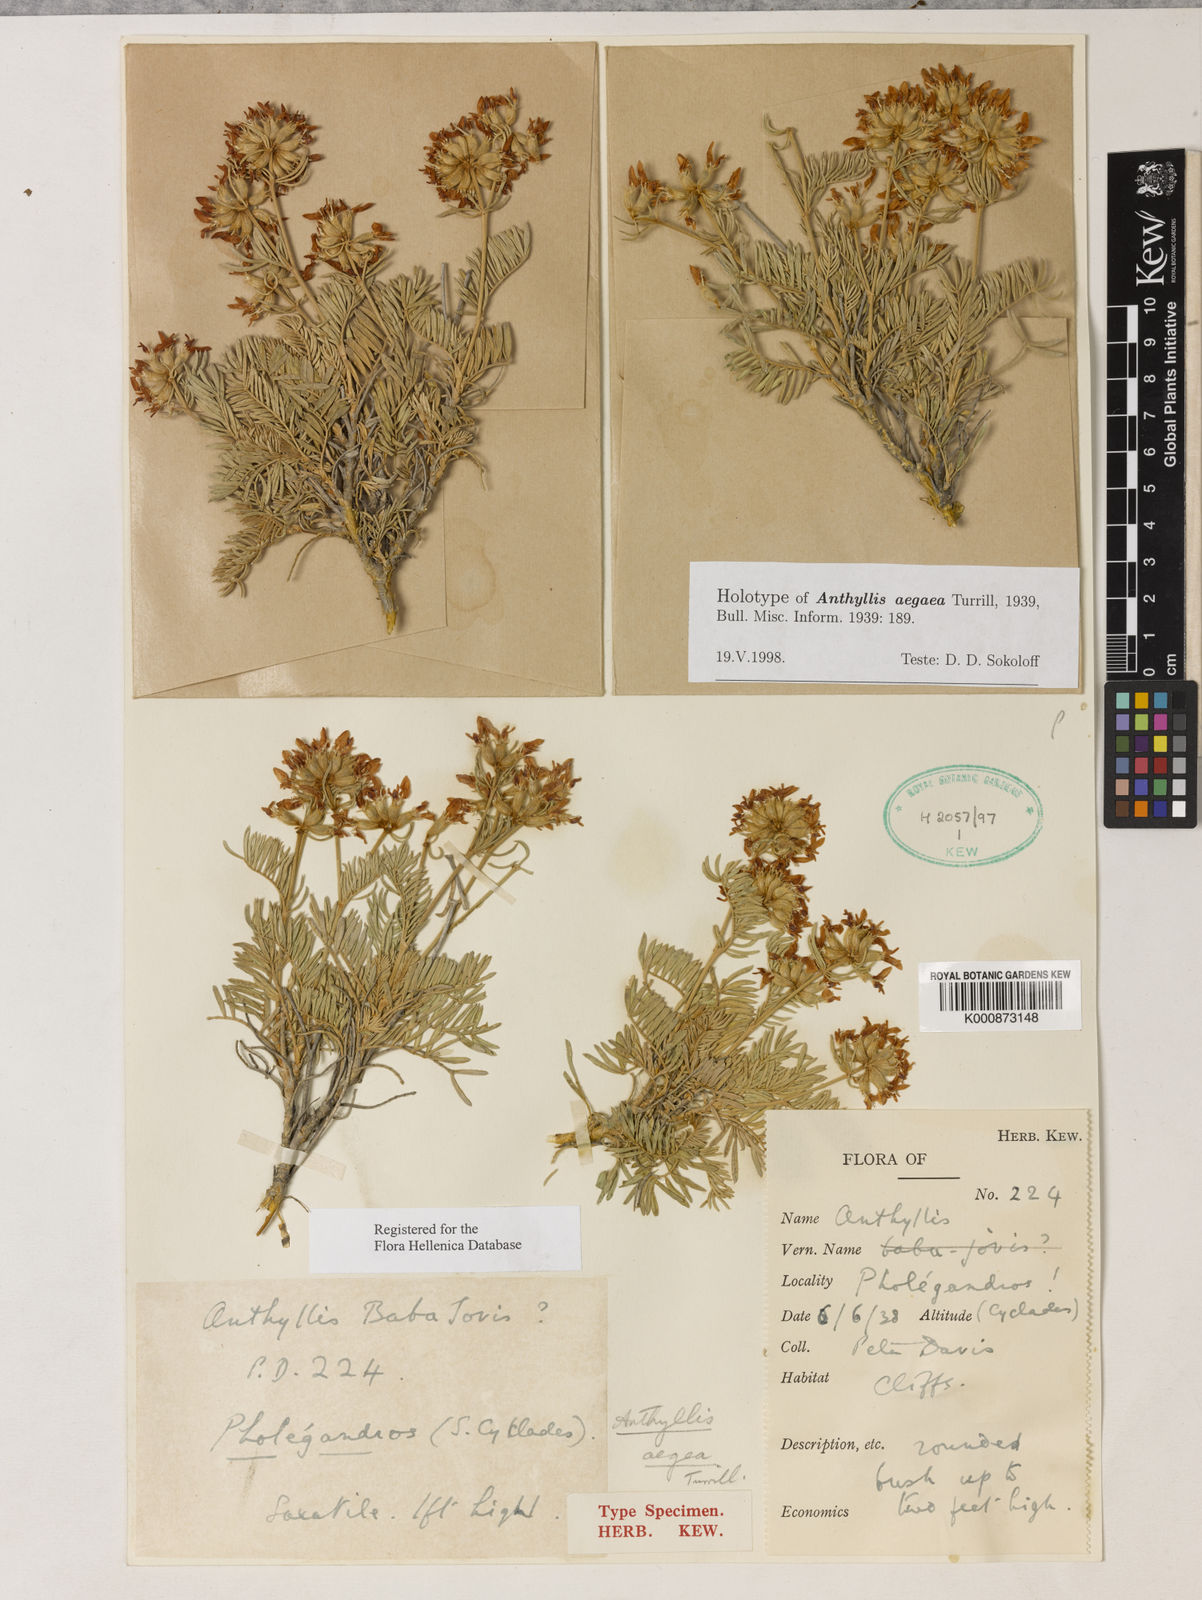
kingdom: Plantae
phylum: Tracheophyta
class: Magnoliopsida
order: Fabales
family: Fabaceae
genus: Anthyllis
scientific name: Anthyllis
